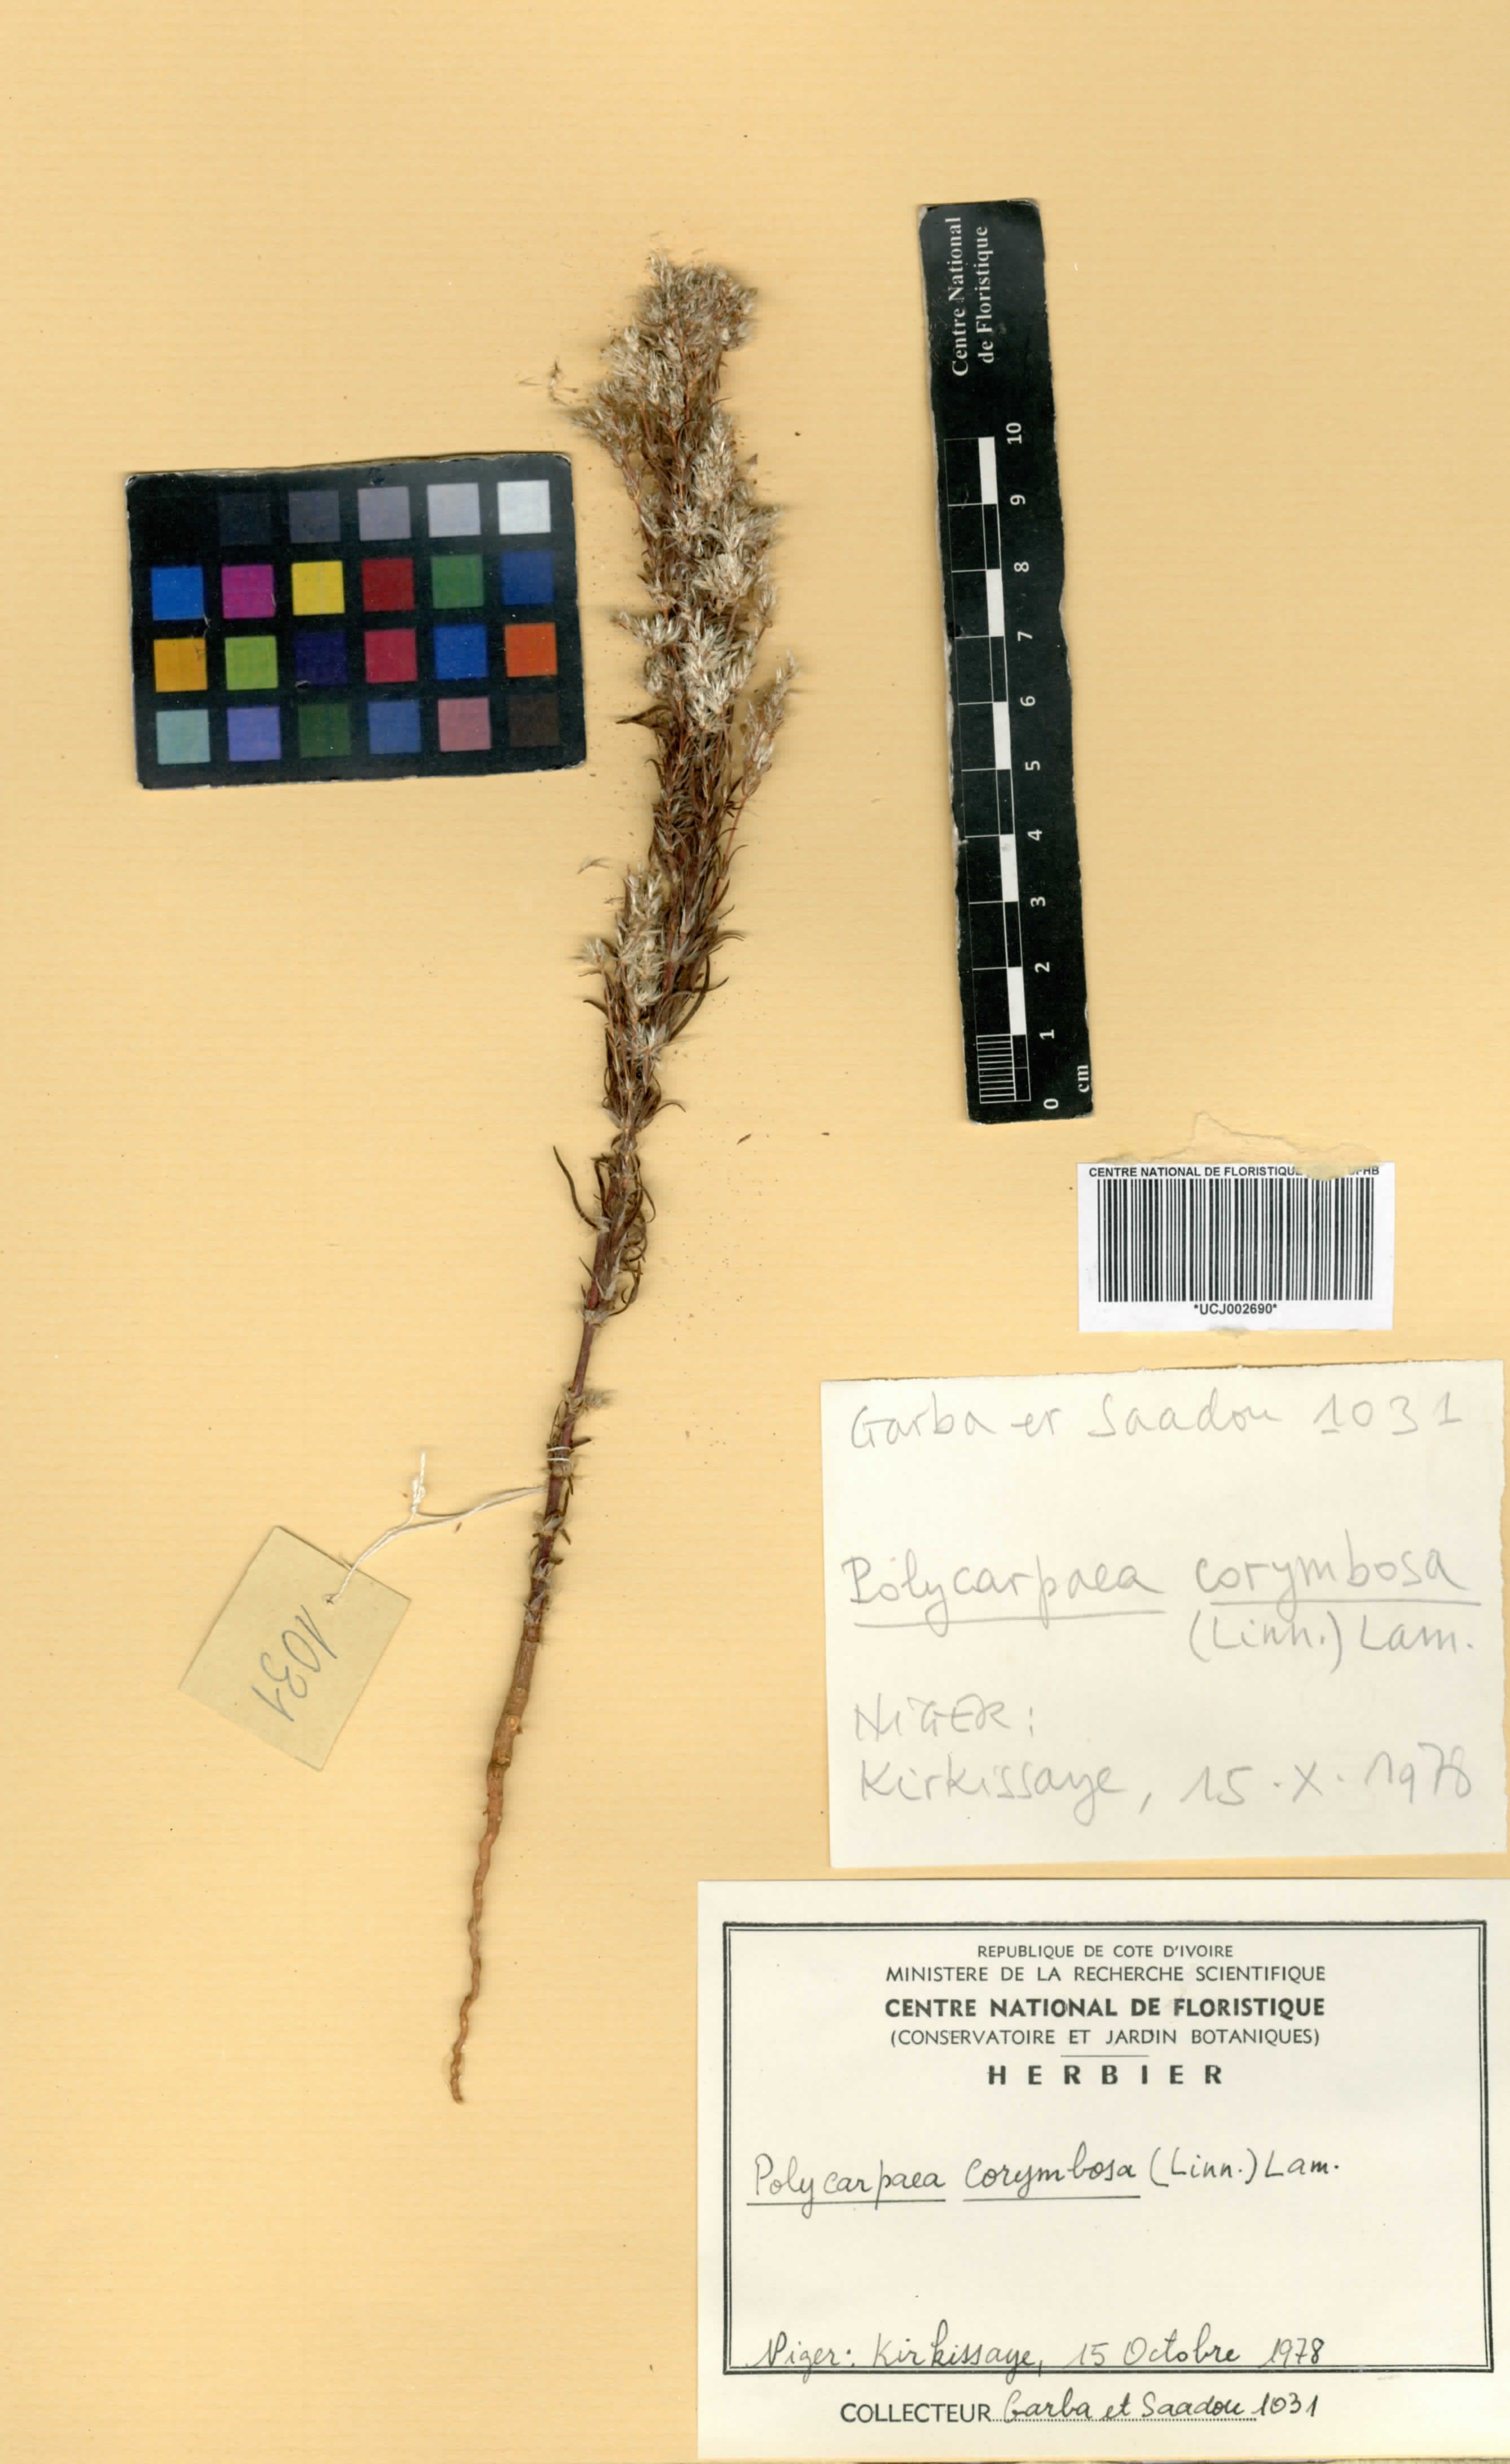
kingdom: Plantae
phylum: Tracheophyta
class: Magnoliopsida
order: Caryophyllales
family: Caryophyllaceae
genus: Polycarpaea
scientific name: Polycarpaea corymbosa
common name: Oldman's cap
